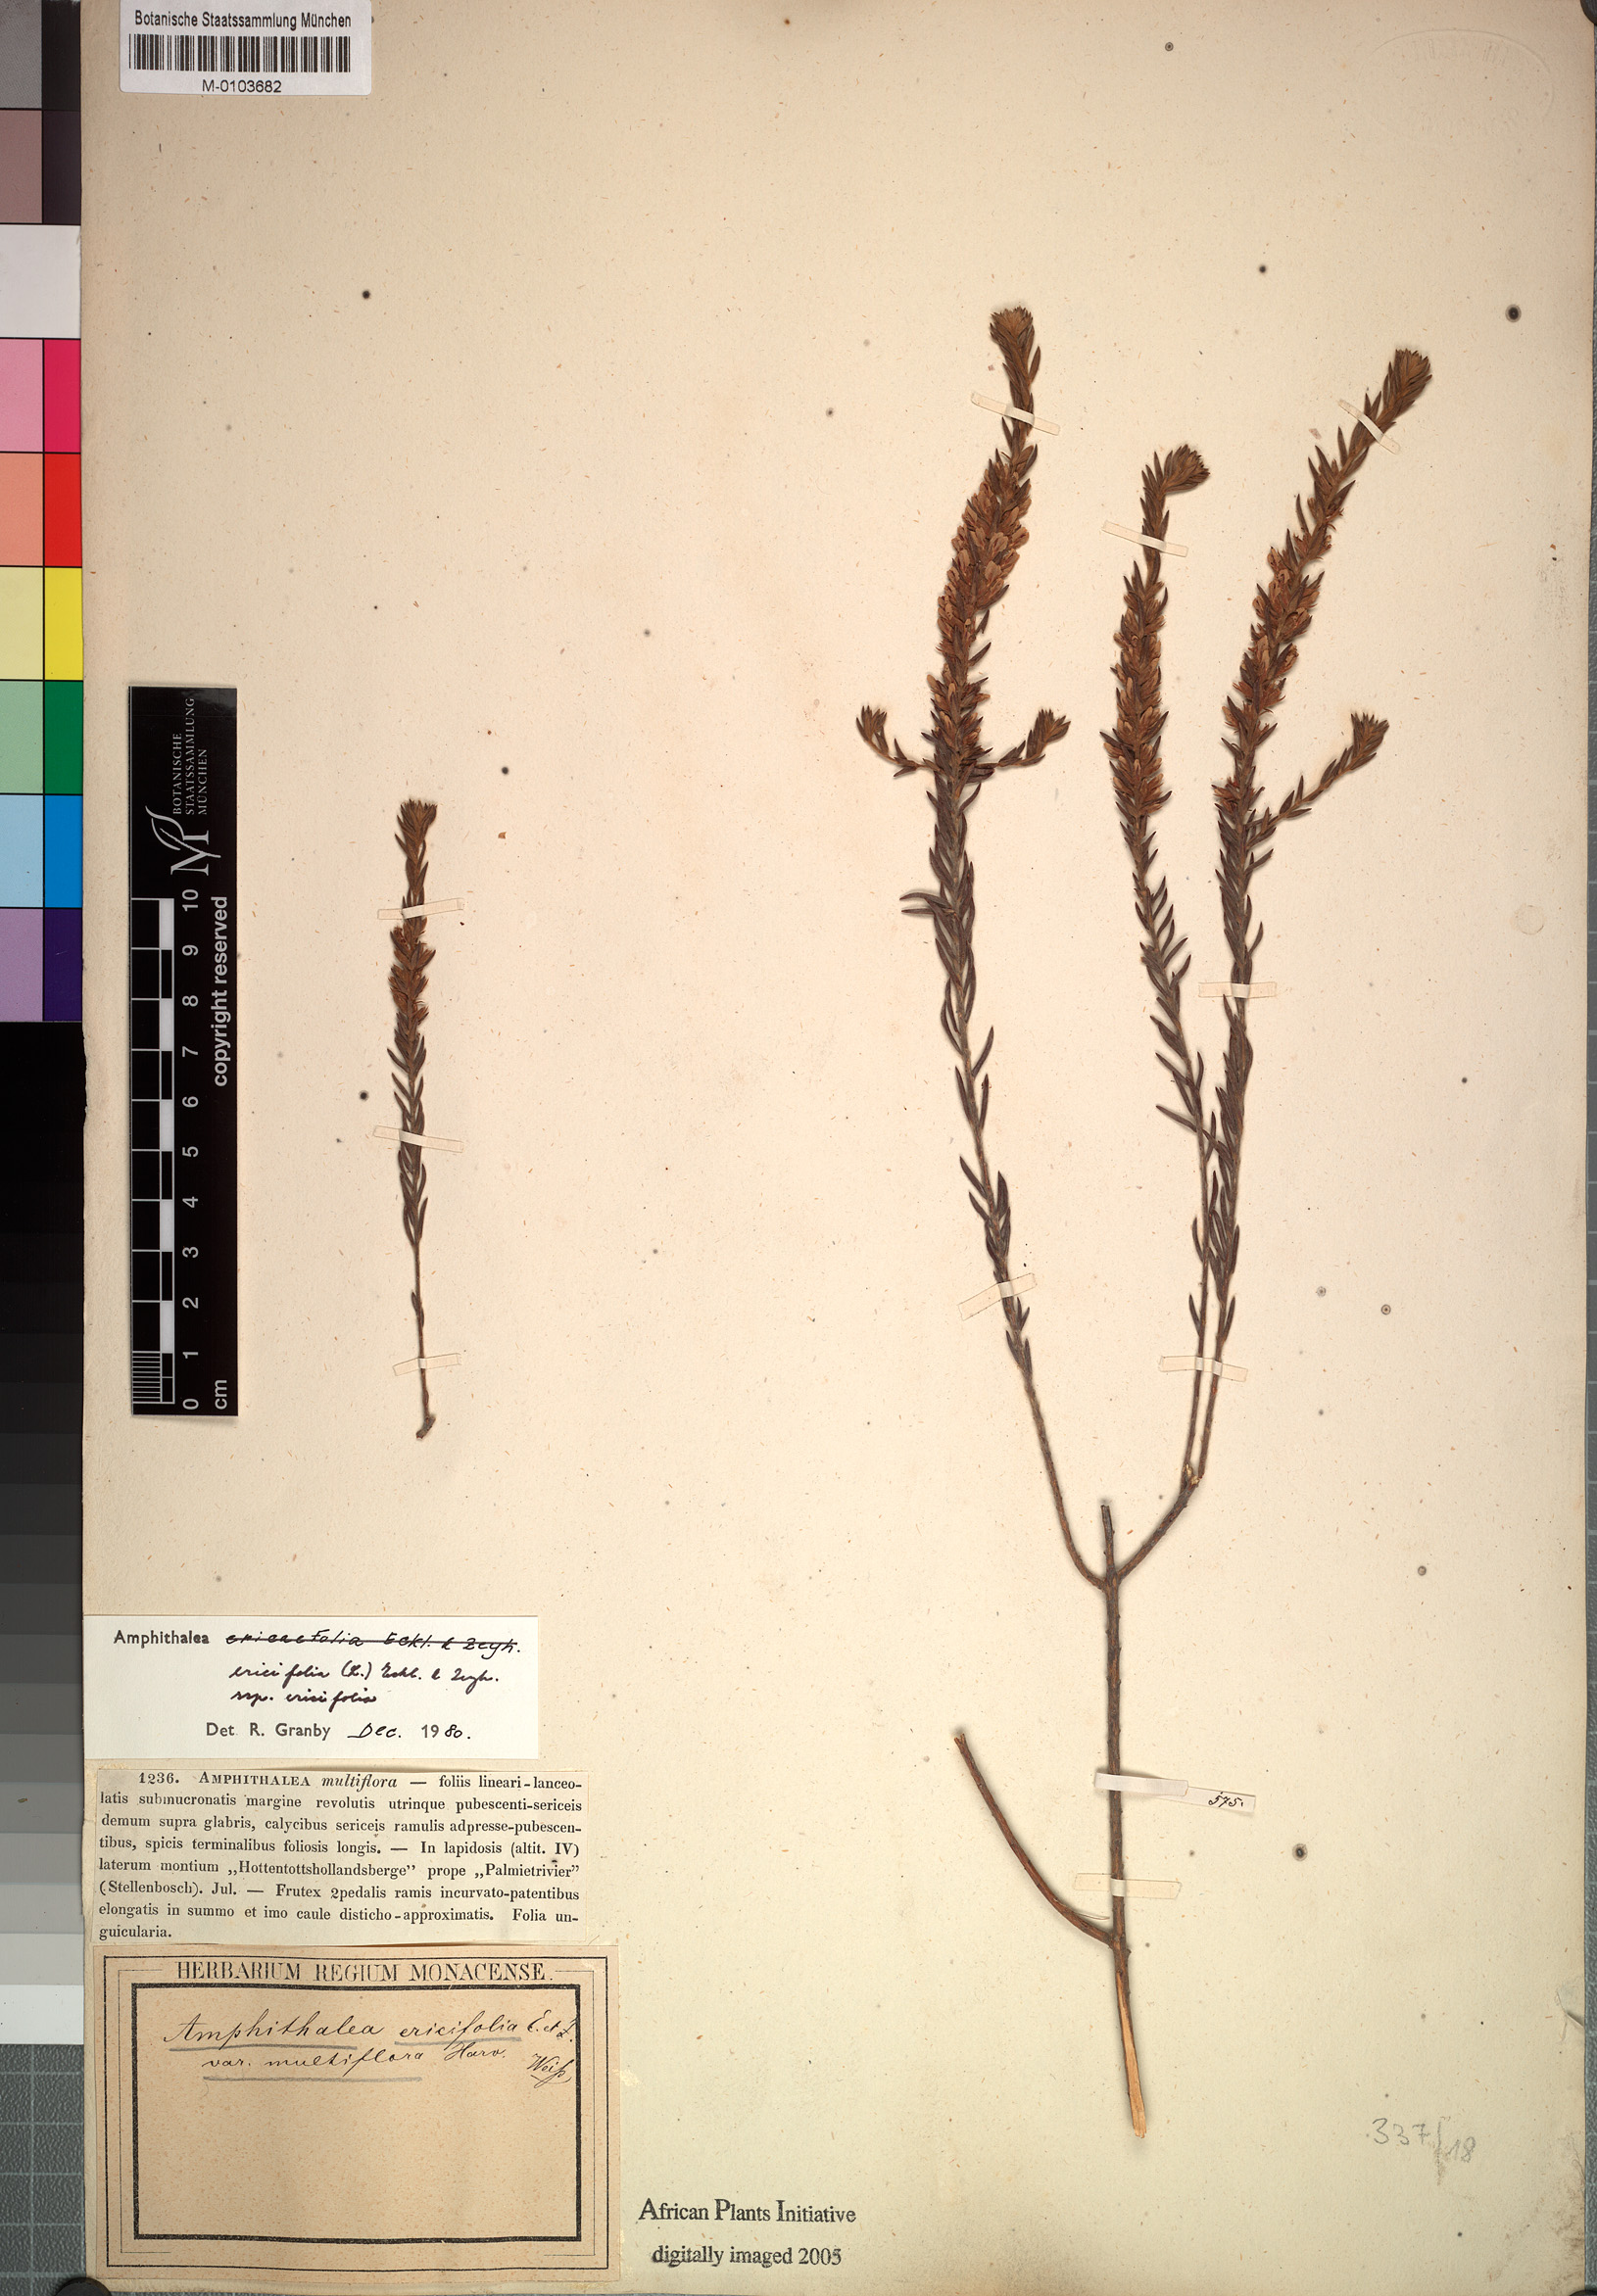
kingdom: Plantae
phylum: Tracheophyta
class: Magnoliopsida
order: Fabales
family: Fabaceae
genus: Amphithalea
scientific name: Amphithalea ericaefolia
